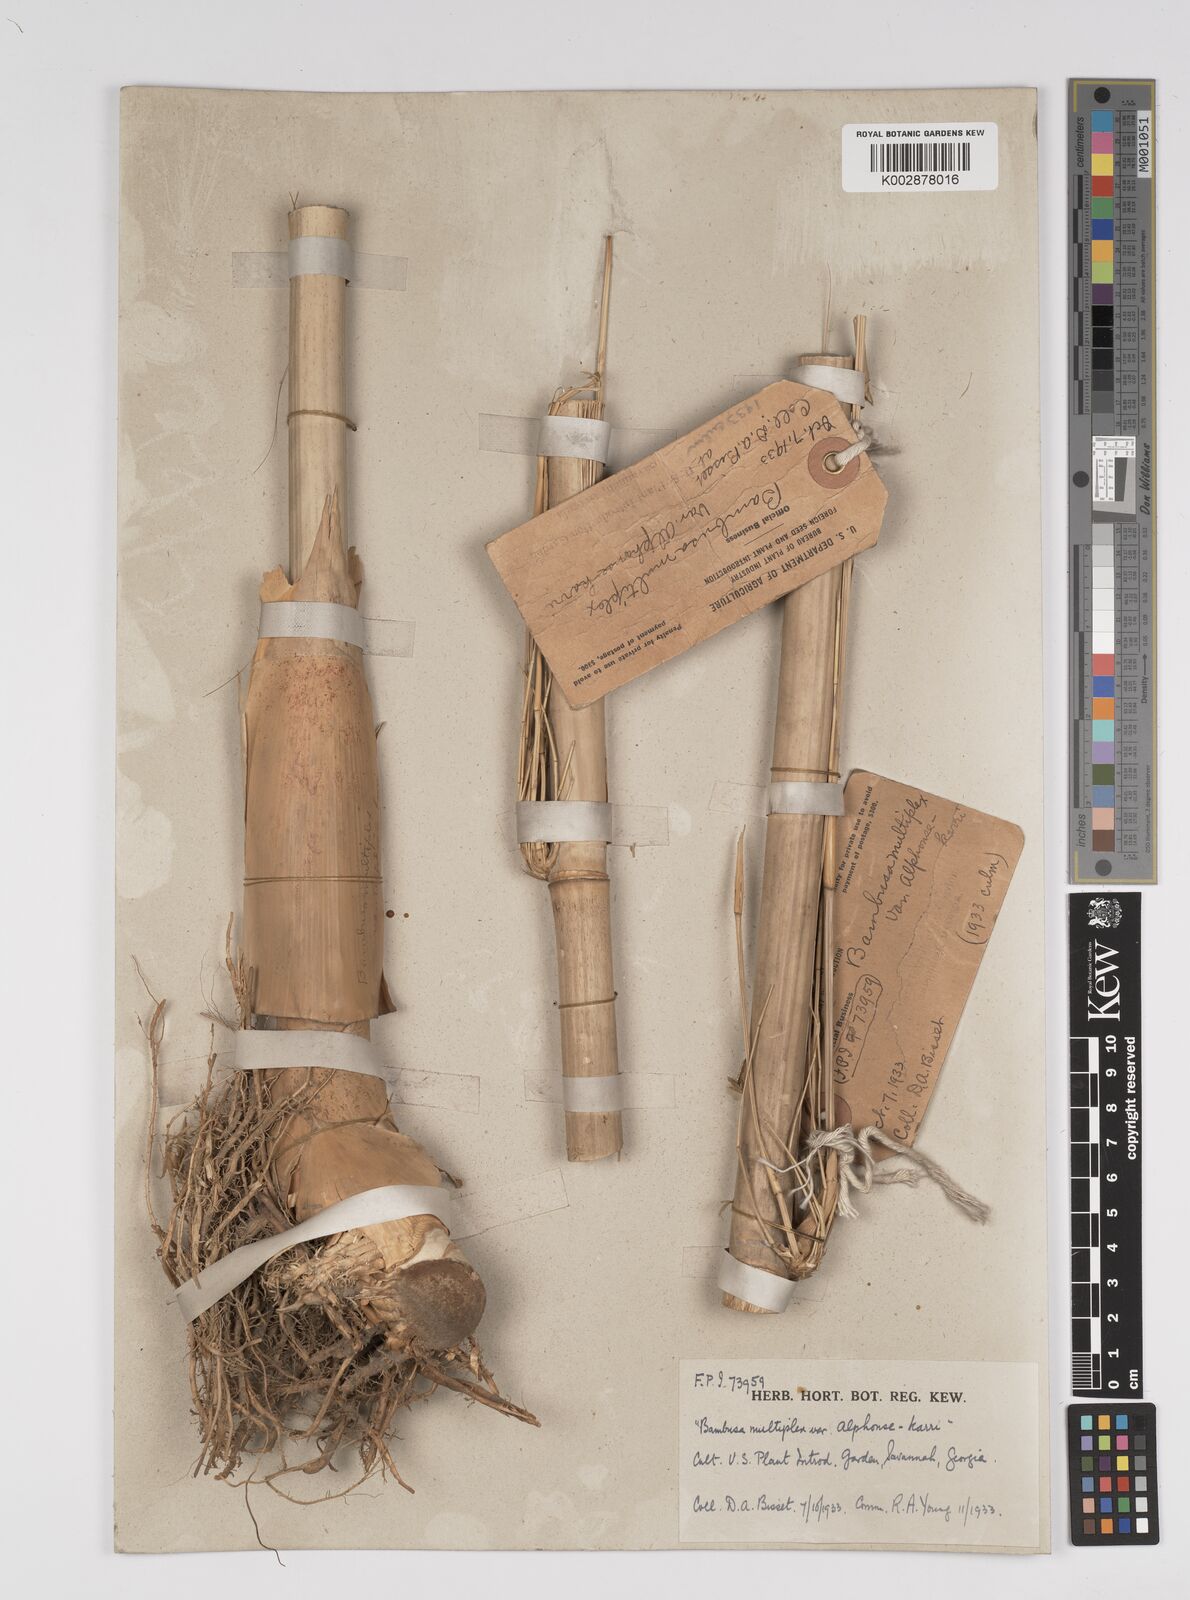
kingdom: Plantae
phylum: Tracheophyta
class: Liliopsida
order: Poales
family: Poaceae
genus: Bambusa
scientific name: Bambusa multiplex
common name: Hedge bamboo
